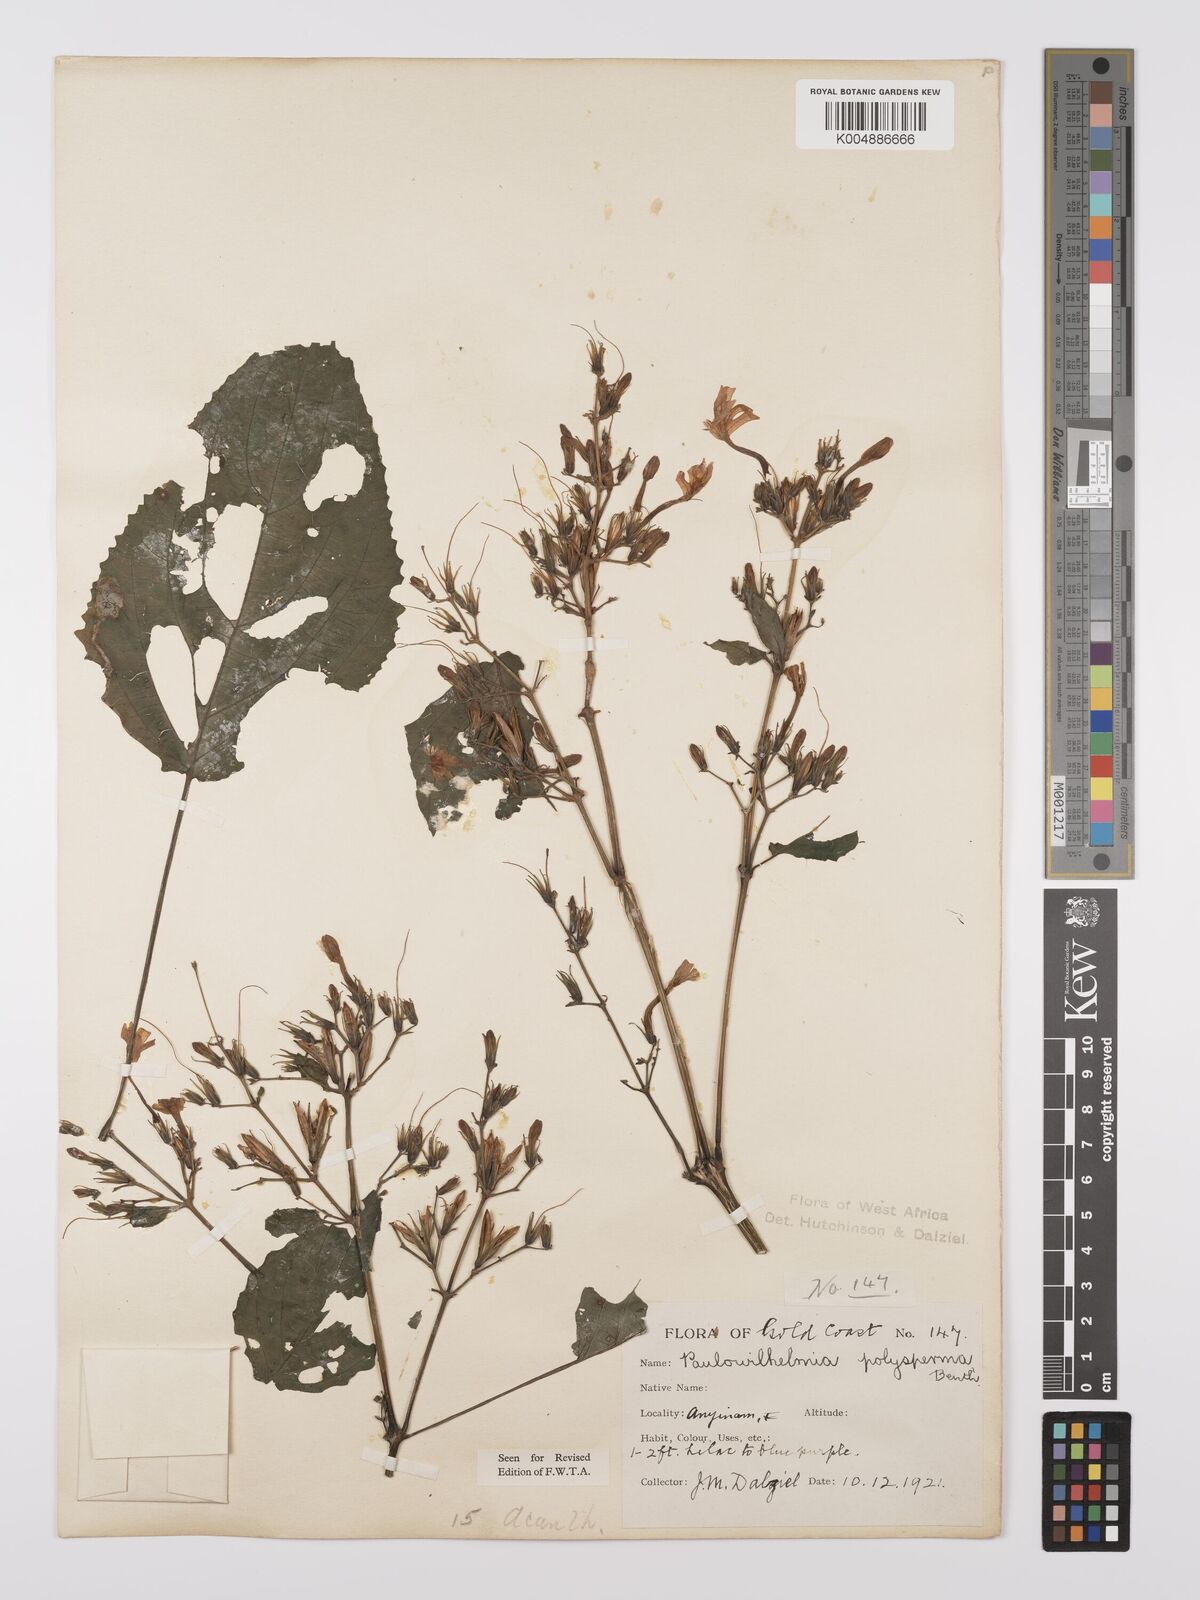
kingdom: Plantae
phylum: Tracheophyta
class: Magnoliopsida
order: Lamiales
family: Acanthaceae
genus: Eremomastax
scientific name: Eremomastax speciosa
